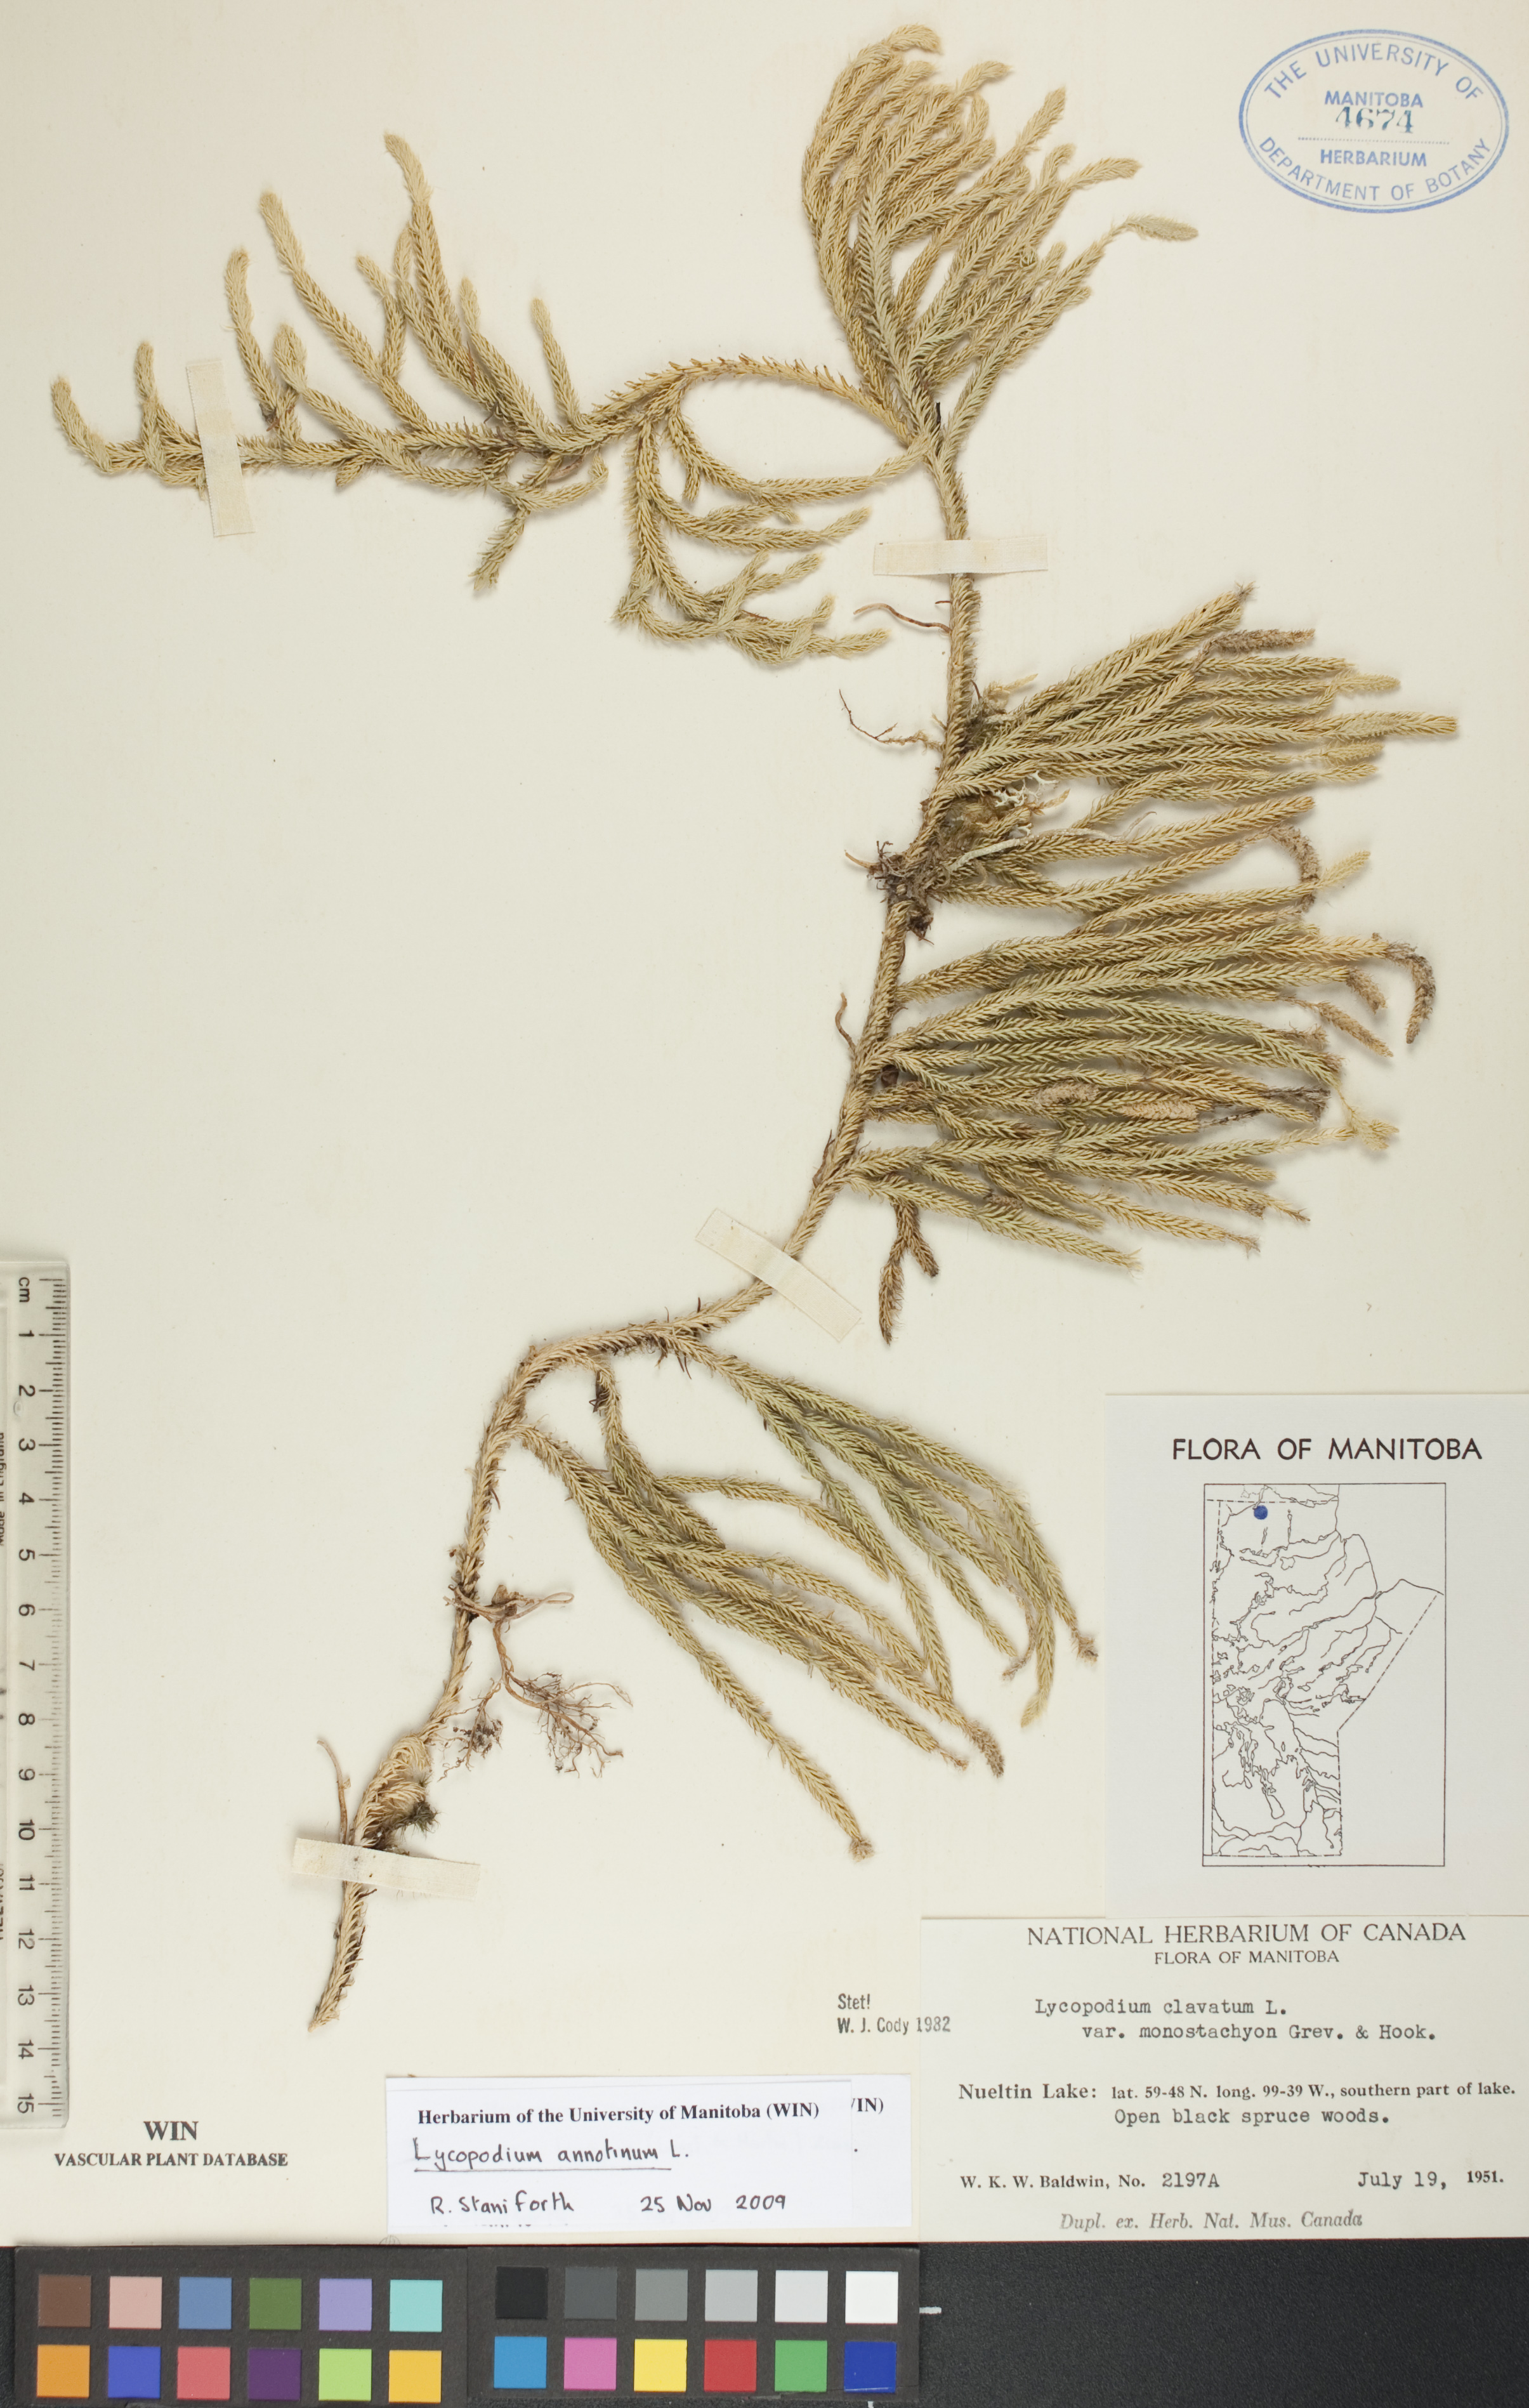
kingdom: Plantae
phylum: Tracheophyta
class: Lycopodiopsida
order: Lycopodiales
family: Lycopodiaceae
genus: Spinulum
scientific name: Spinulum annotinum
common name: Interrupted club-moss
